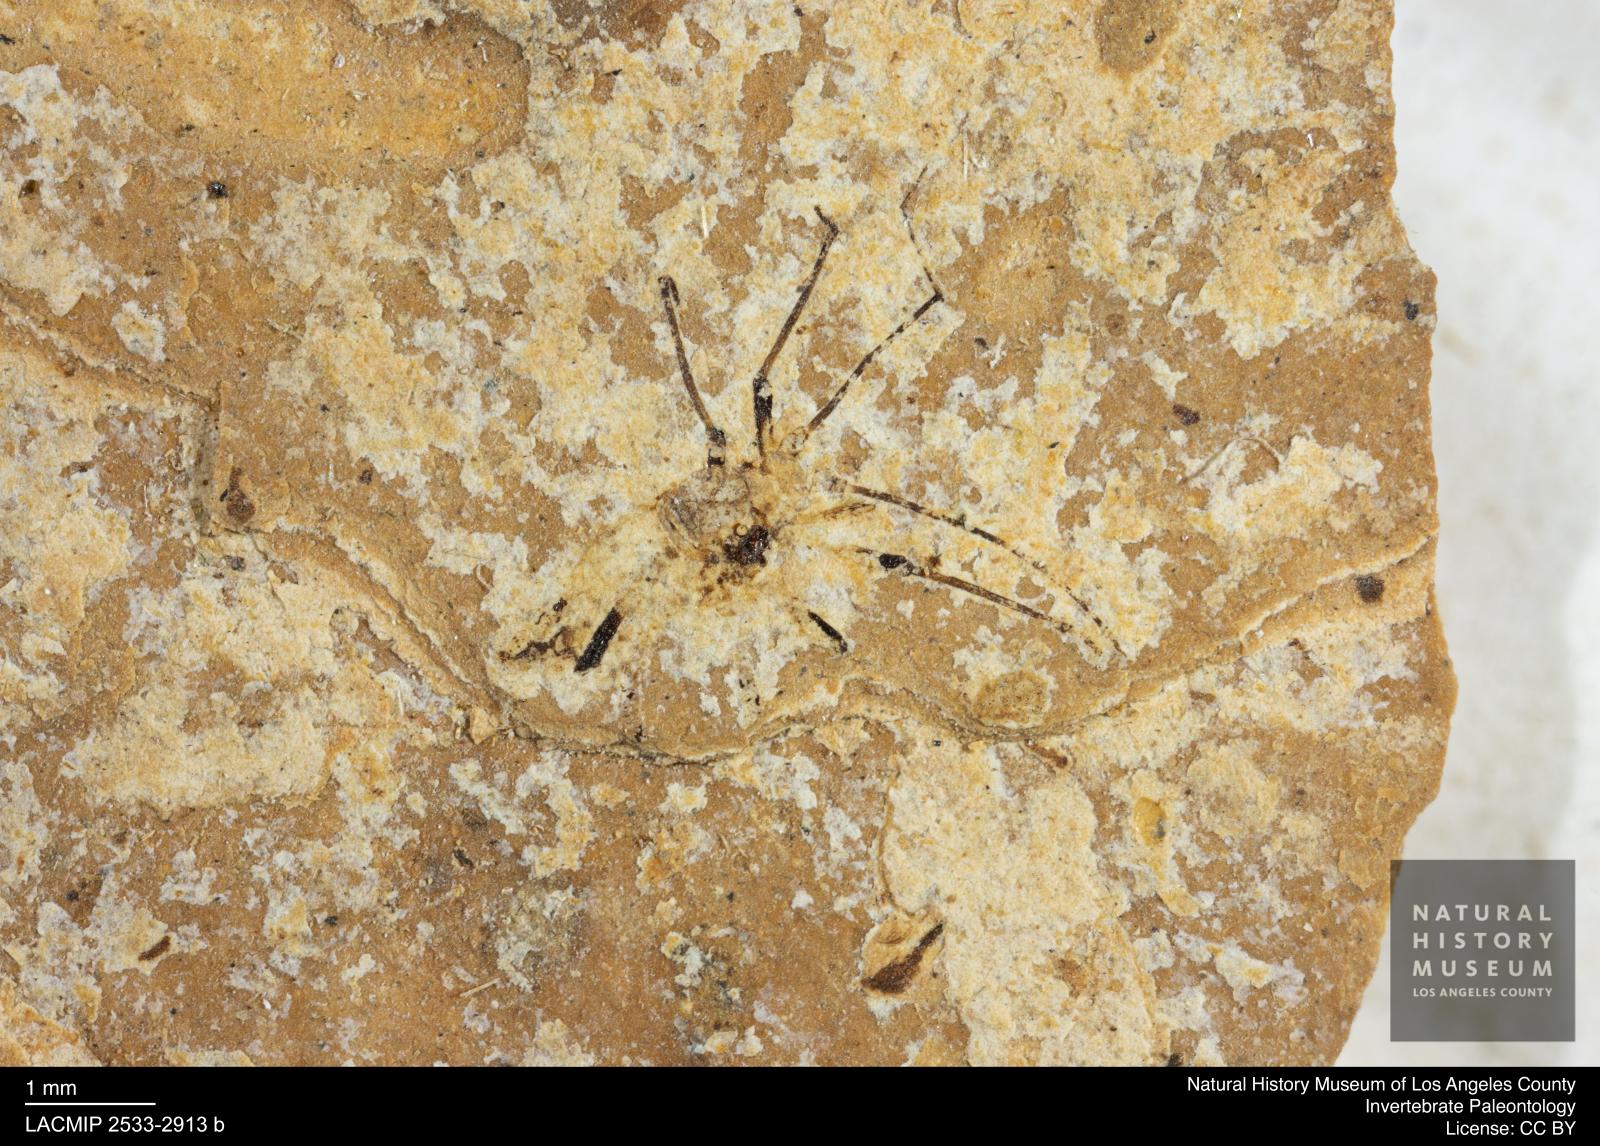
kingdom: Animalia
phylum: Arthropoda
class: Insecta
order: Hemiptera
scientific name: Hemiptera
